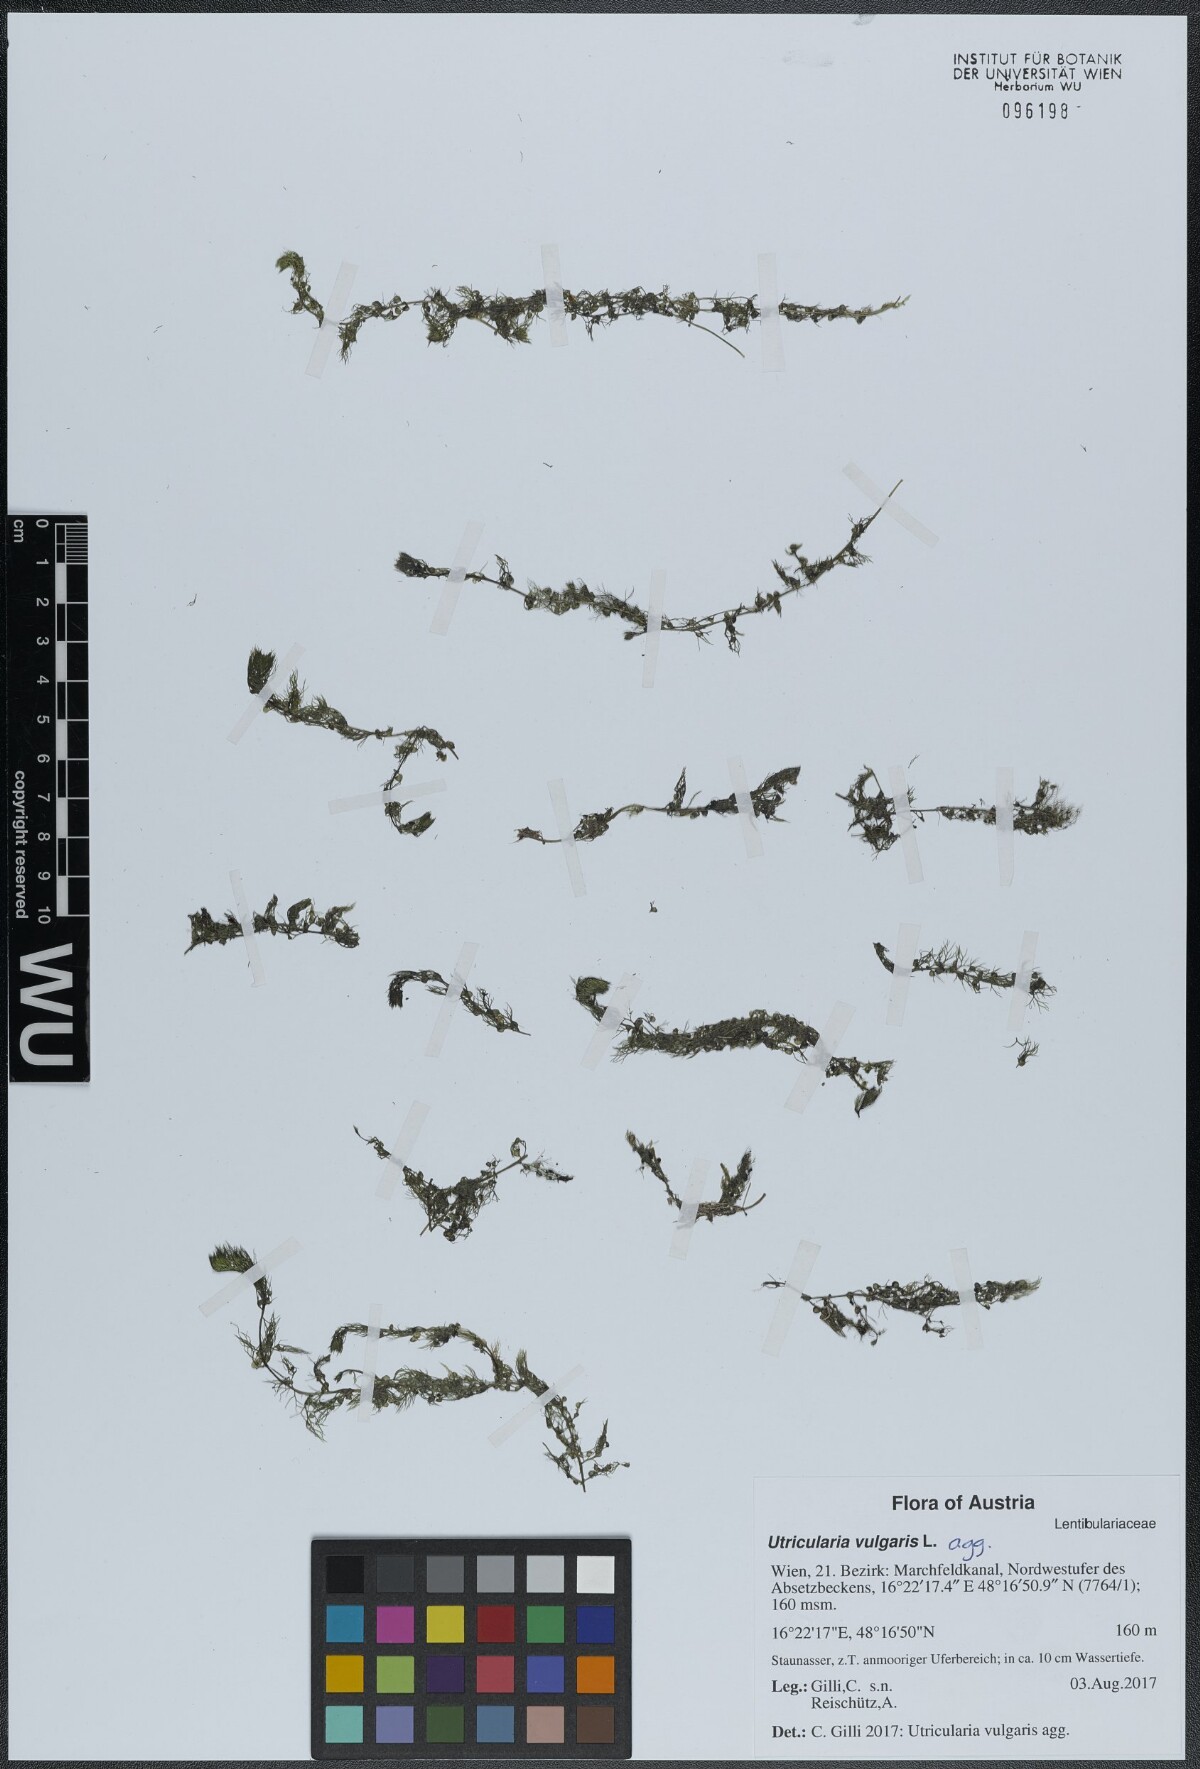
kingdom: Plantae
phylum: Tracheophyta
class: Magnoliopsida
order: Lamiales
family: Lentibulariaceae
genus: Utricularia
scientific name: Utricularia vulgaris
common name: Greater bladderwort
